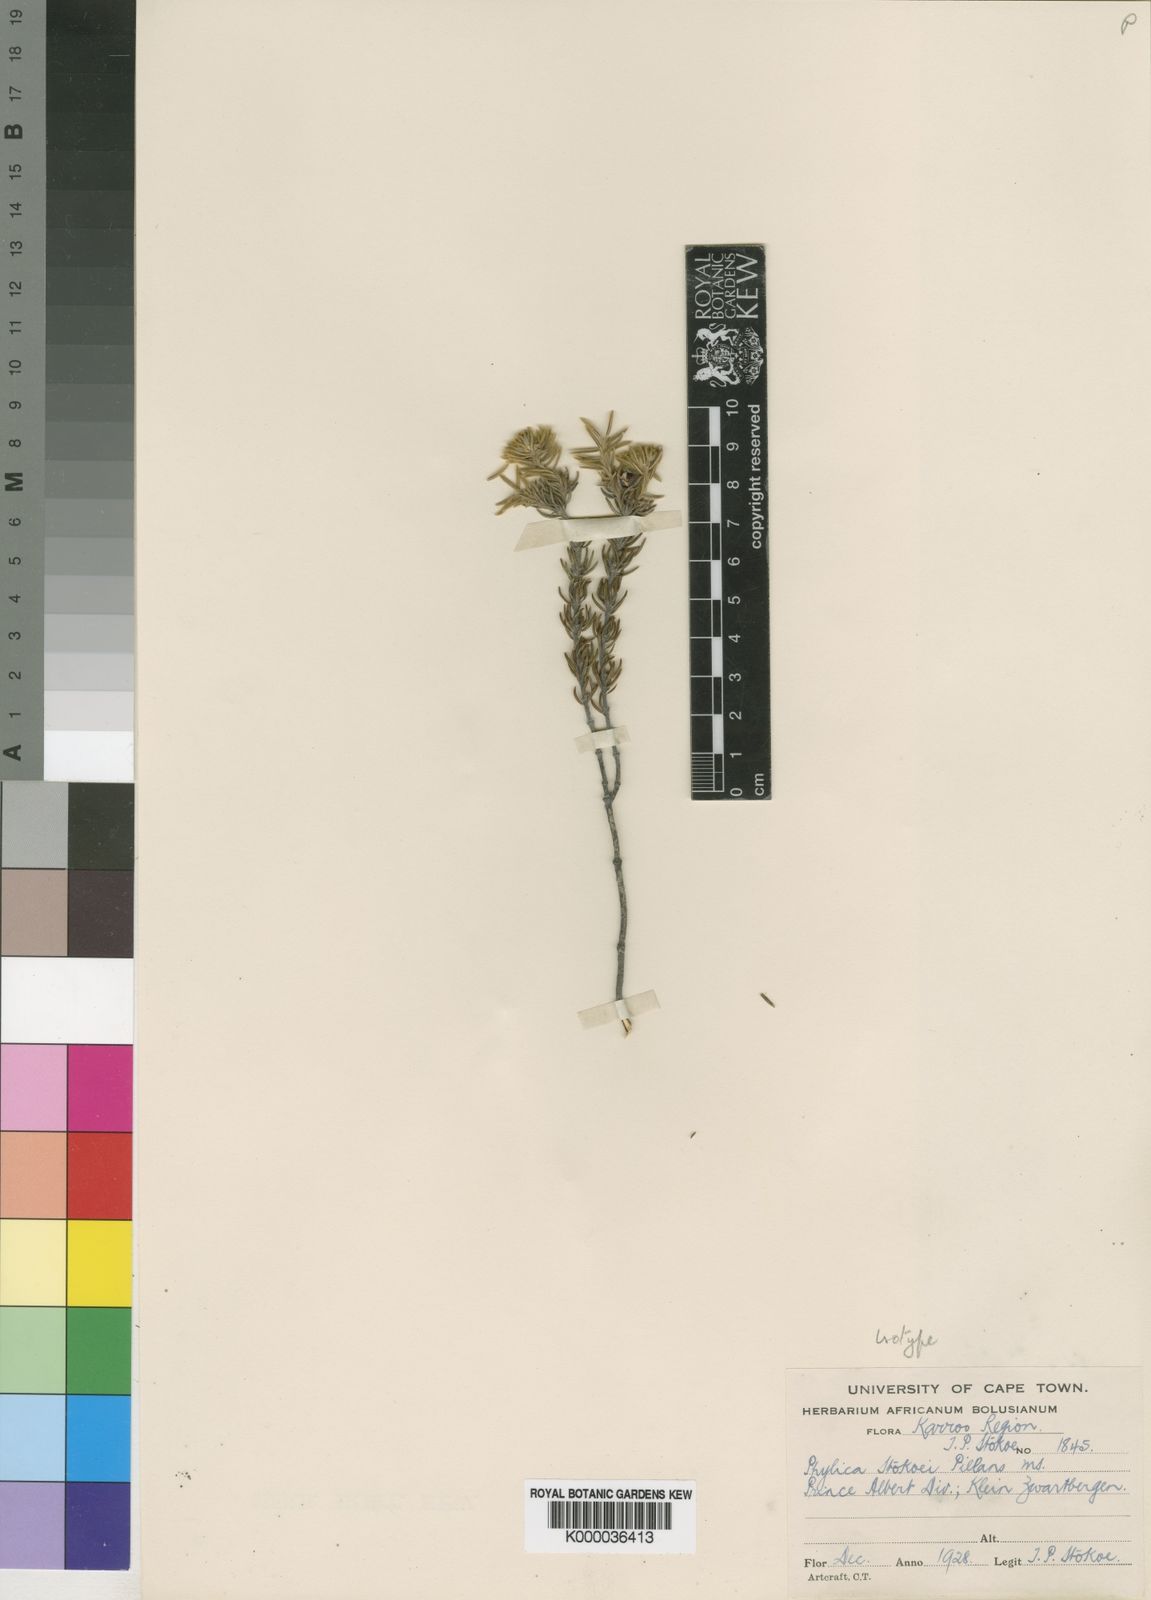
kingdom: Plantae
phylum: Tracheophyta
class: Magnoliopsida
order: Rosales
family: Rhamnaceae
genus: Phylica
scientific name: Phylica stokoei
